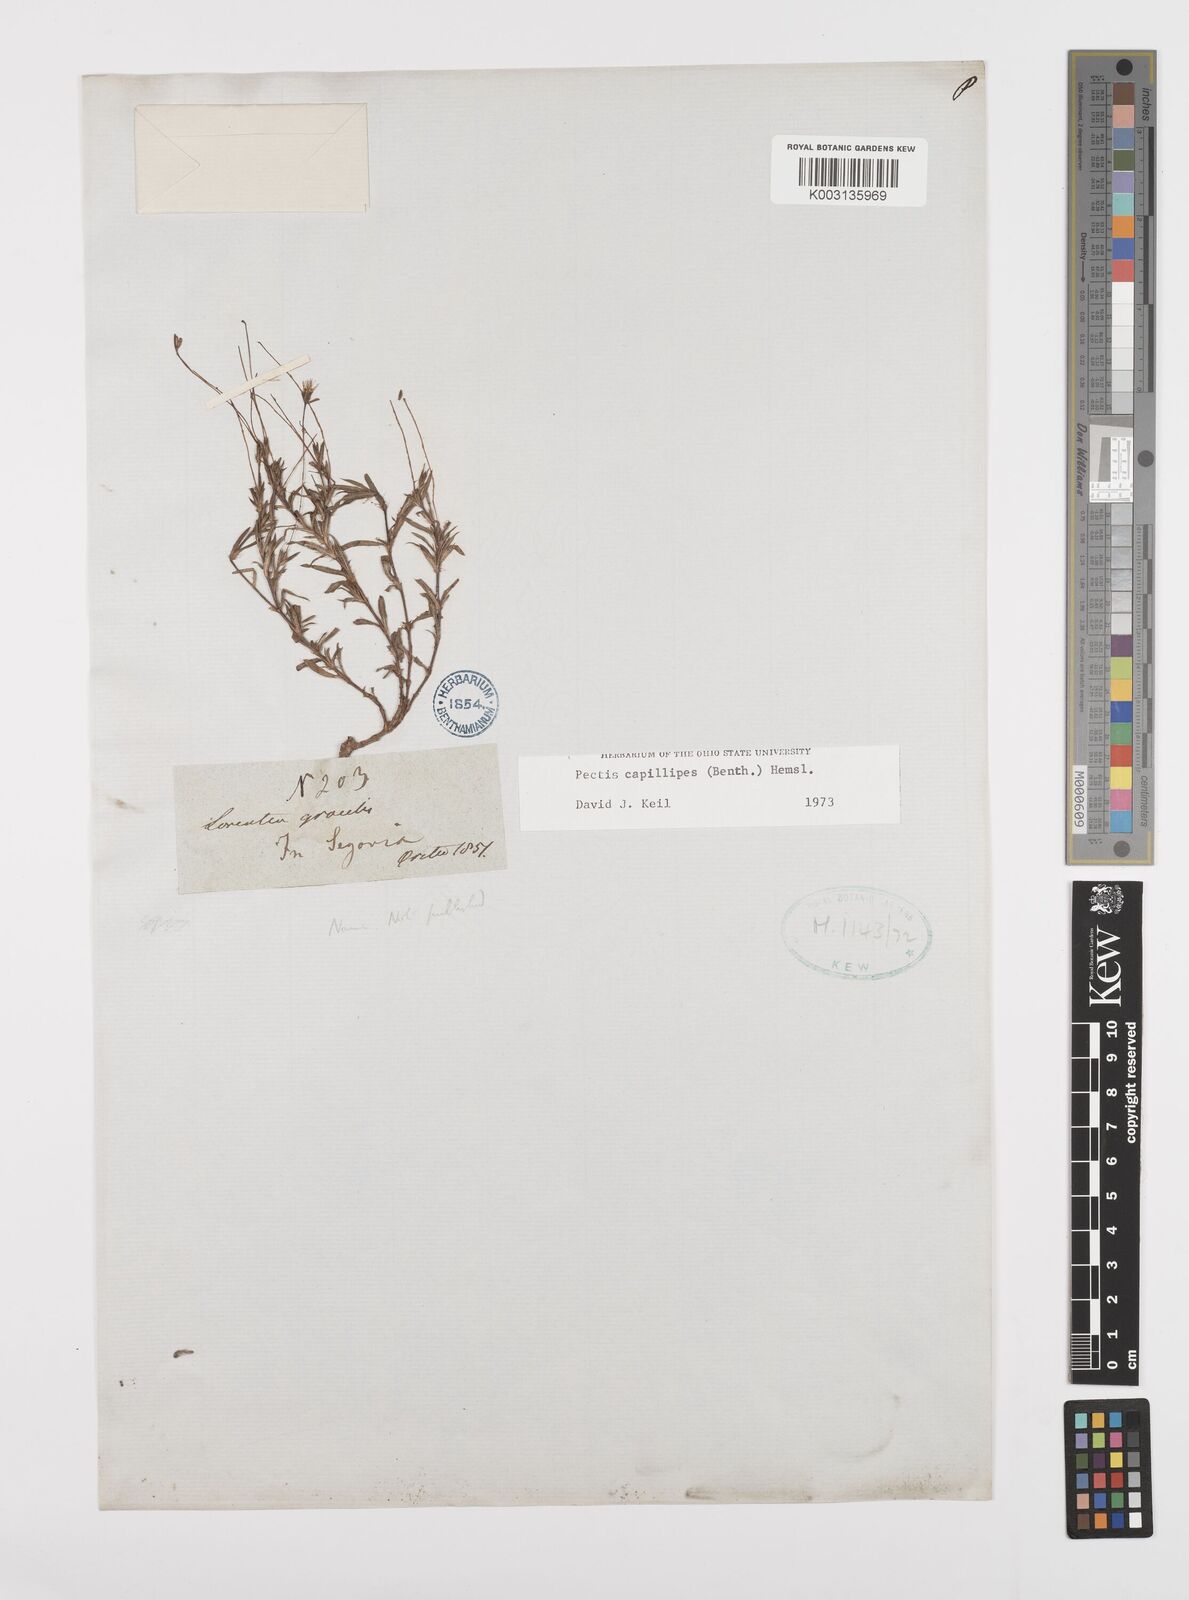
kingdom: Plantae
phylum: Tracheophyta
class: Magnoliopsida
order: Asterales
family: Asteraceae
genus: Pectis
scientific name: Pectis capillipes
